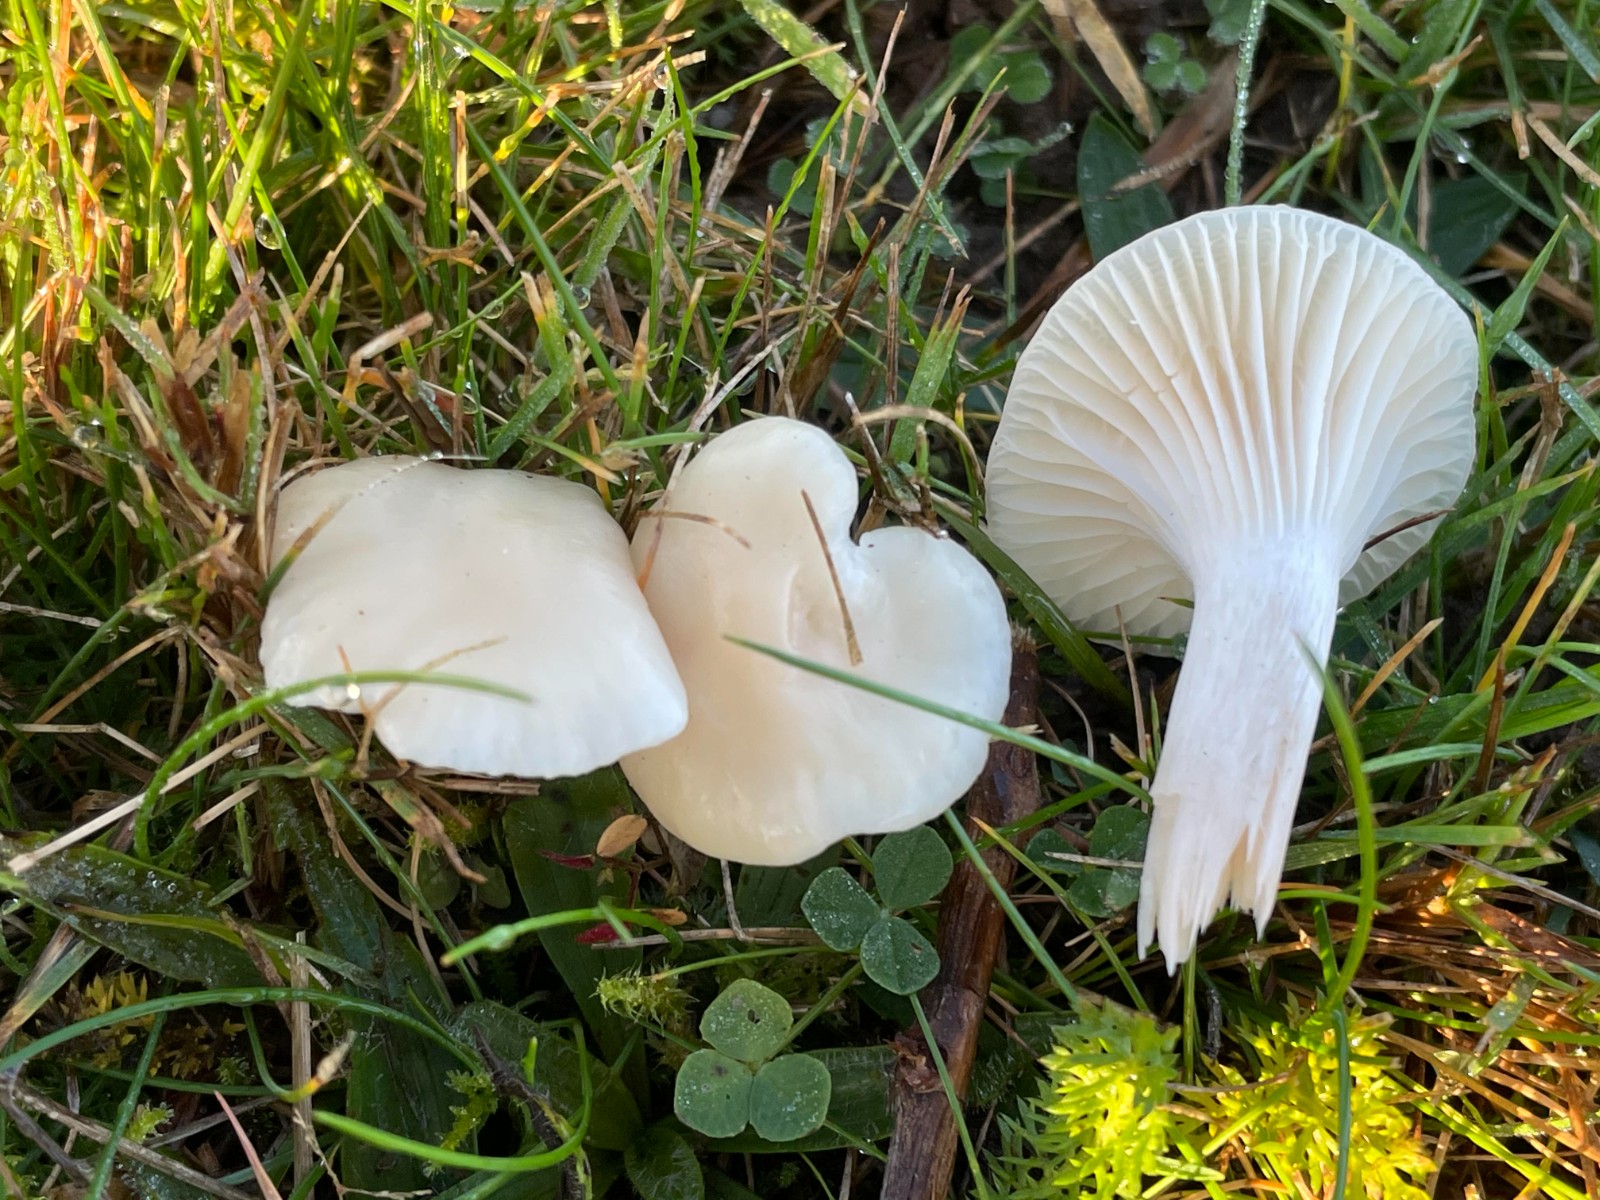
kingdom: Fungi
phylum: Basidiomycota
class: Agaricomycetes
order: Agaricales
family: Hygrophoraceae
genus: Cuphophyllus
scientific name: Cuphophyllus
